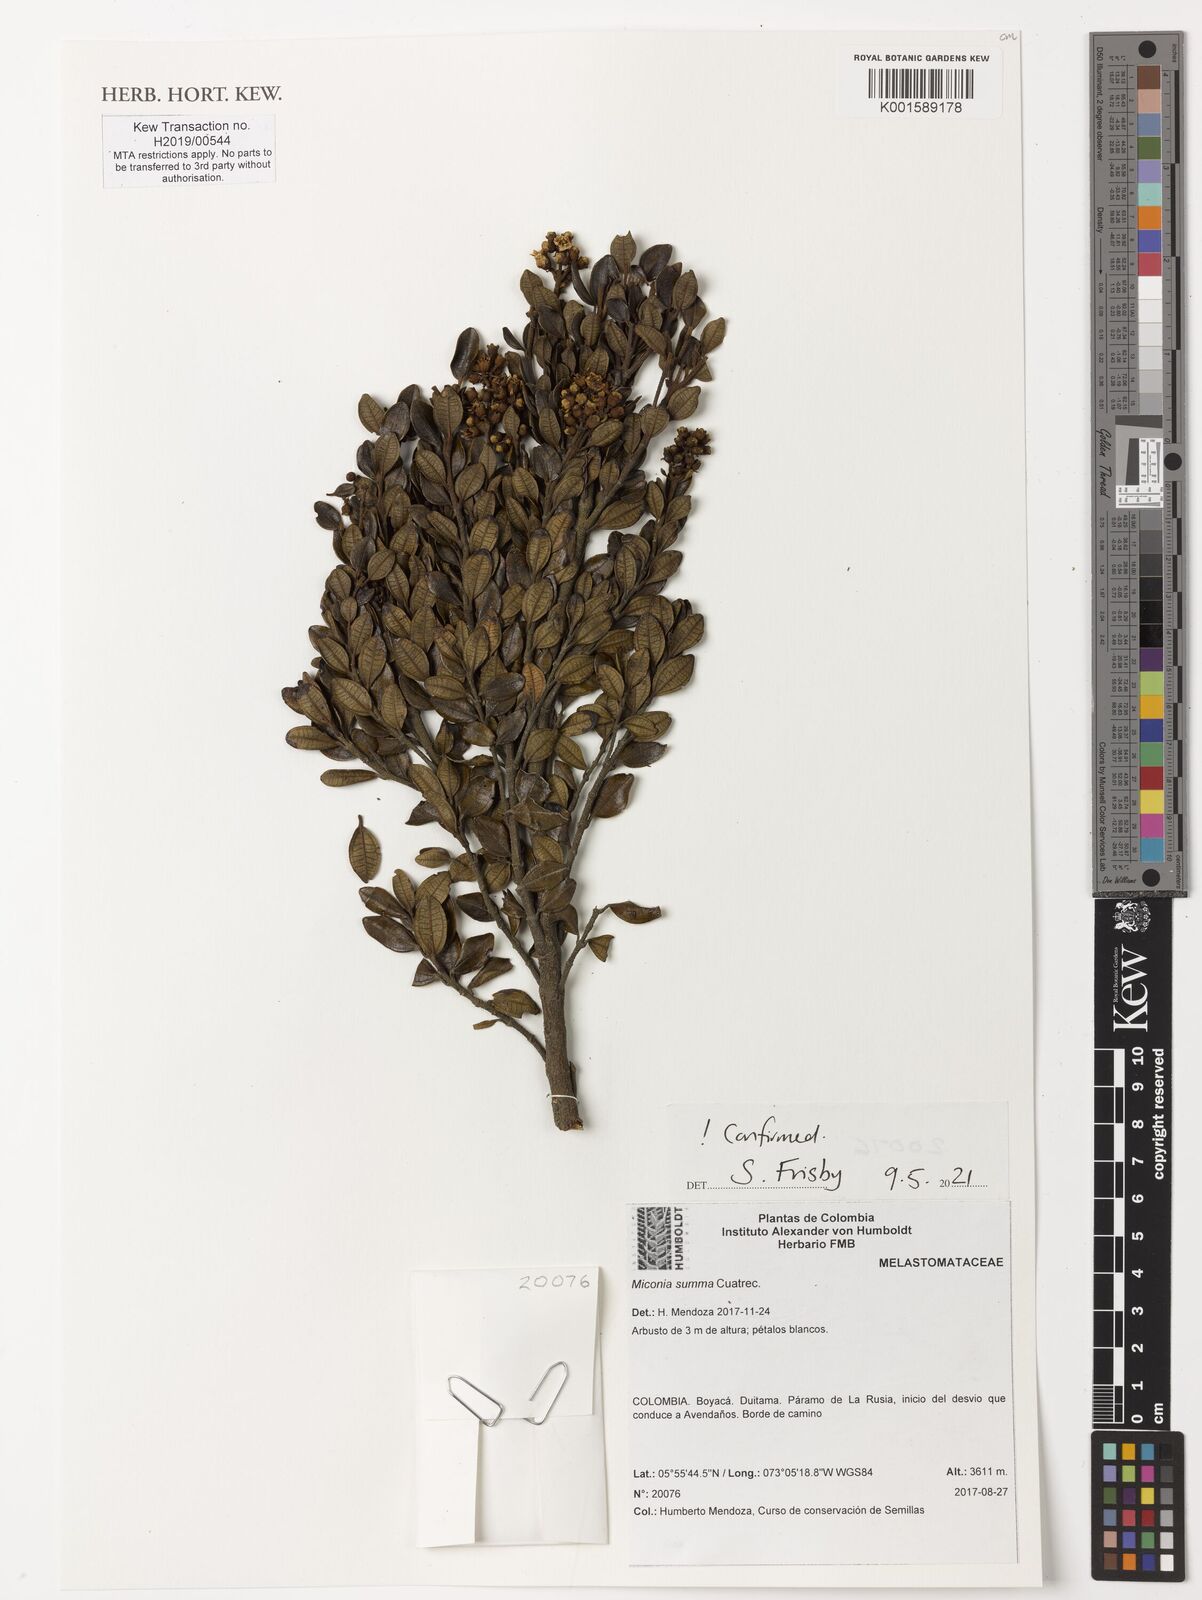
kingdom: Plantae
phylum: Tracheophyta
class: Magnoliopsida
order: Myrtales
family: Melastomataceae
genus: Miconia
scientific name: Miconia summa
